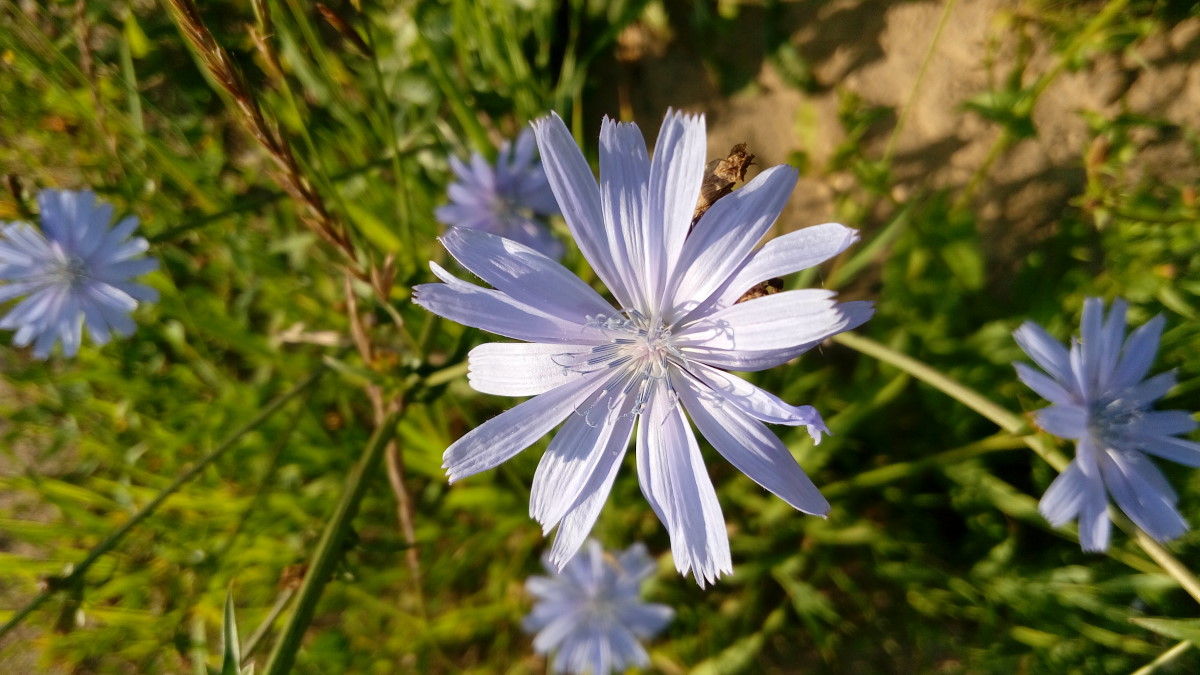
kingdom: Plantae
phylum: Tracheophyta
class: Magnoliopsida
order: Asterales
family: Asteraceae
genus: Cichorium
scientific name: Cichorium intybus
